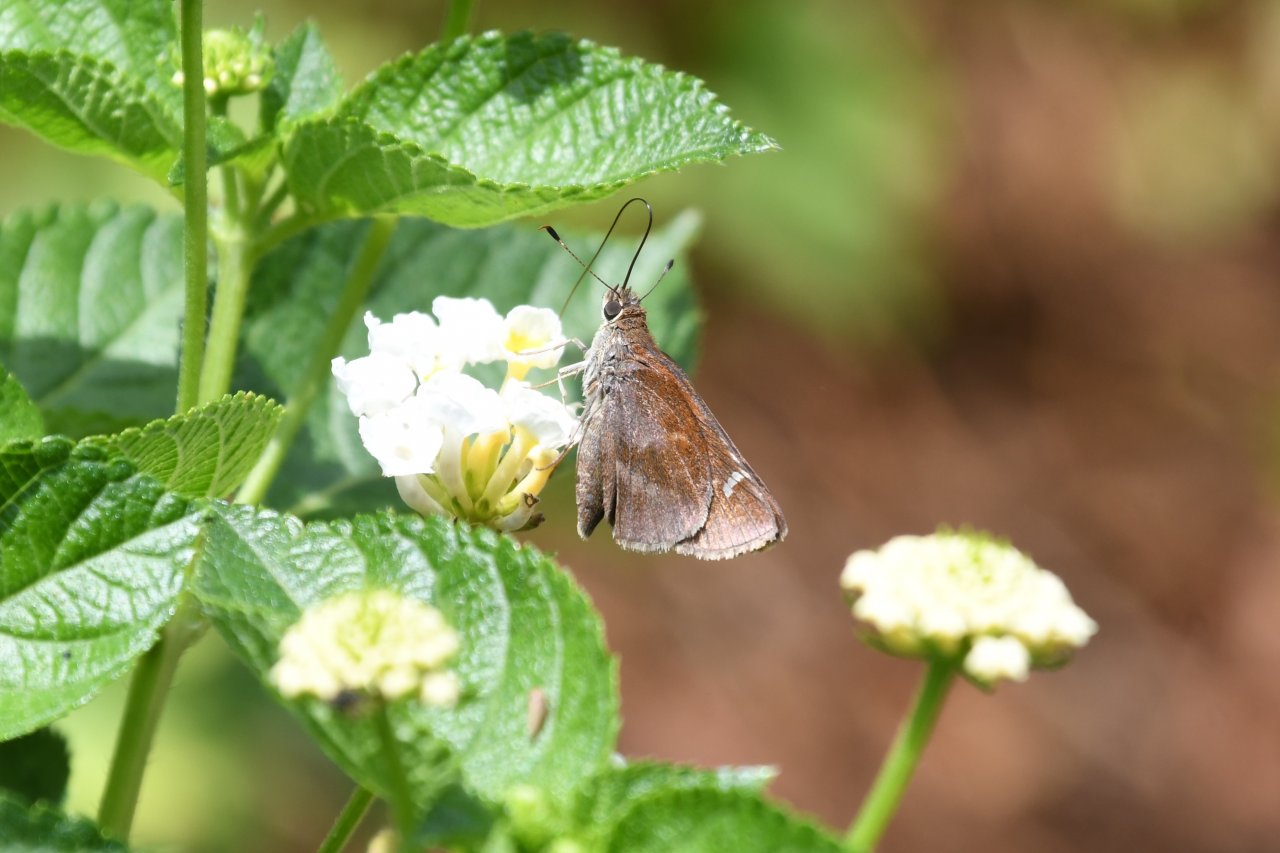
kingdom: Animalia
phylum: Arthropoda
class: Insecta
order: Lepidoptera
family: Hesperiidae
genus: Lerema
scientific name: Lerema accius
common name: Clouded Skipper
